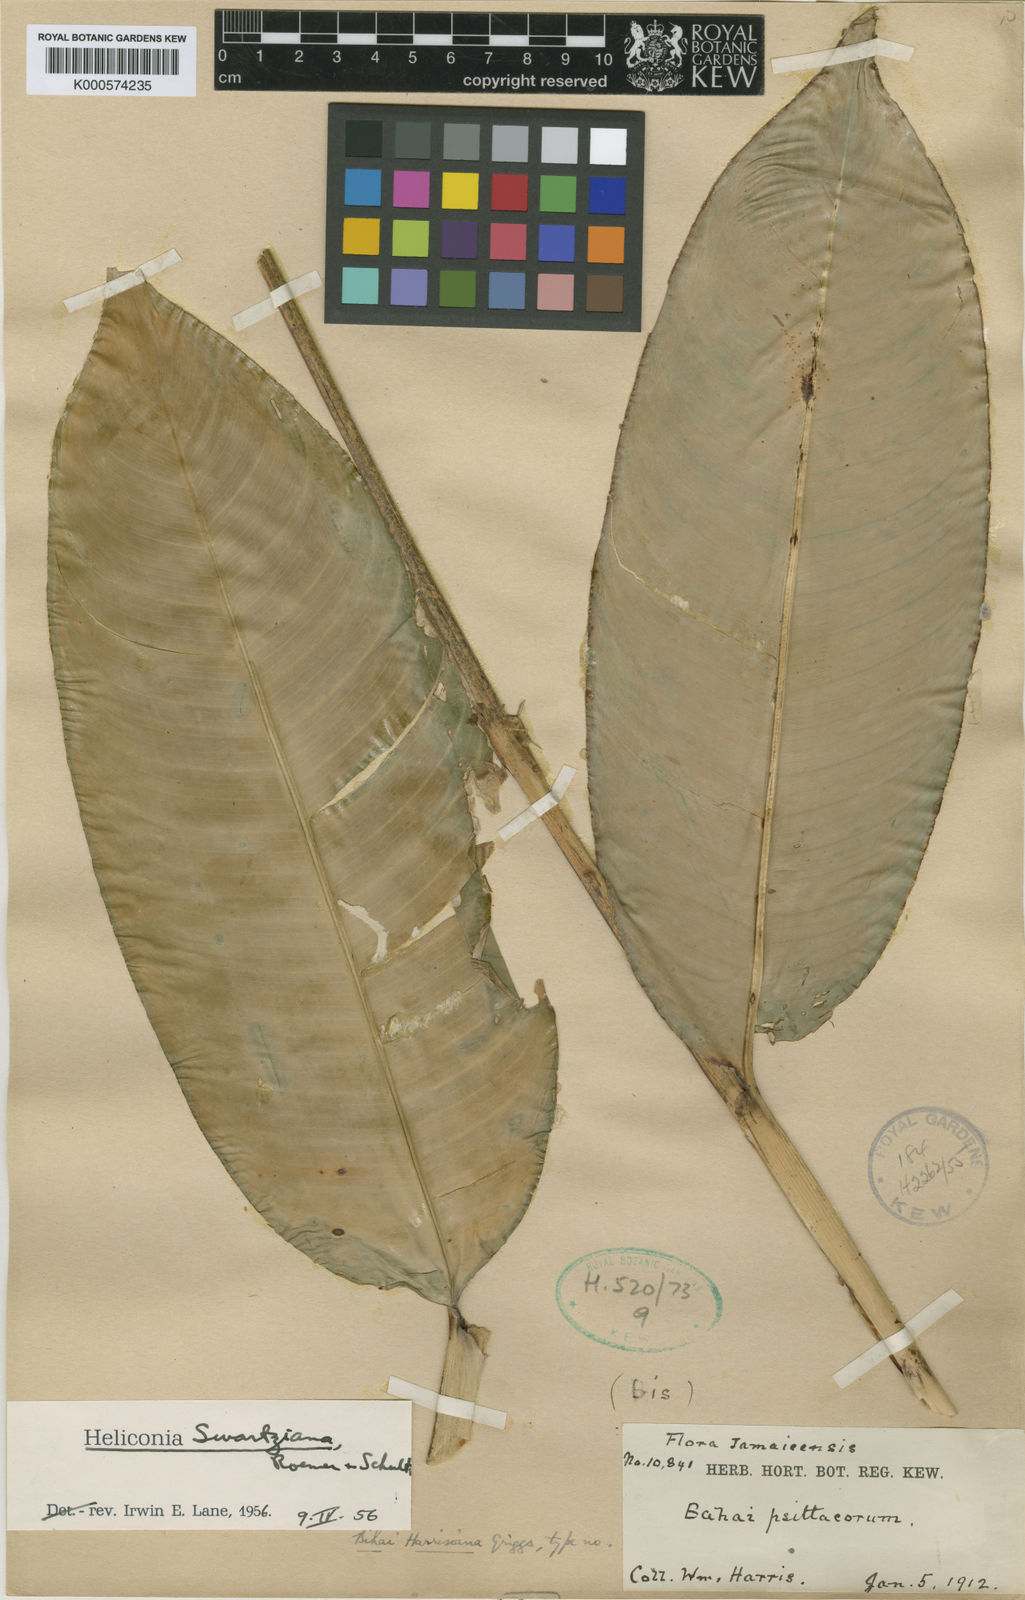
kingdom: Plantae
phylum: Tracheophyta
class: Liliopsida
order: Zingiberales
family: Heliconiaceae
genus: Heliconia
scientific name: Heliconia hirsuta
